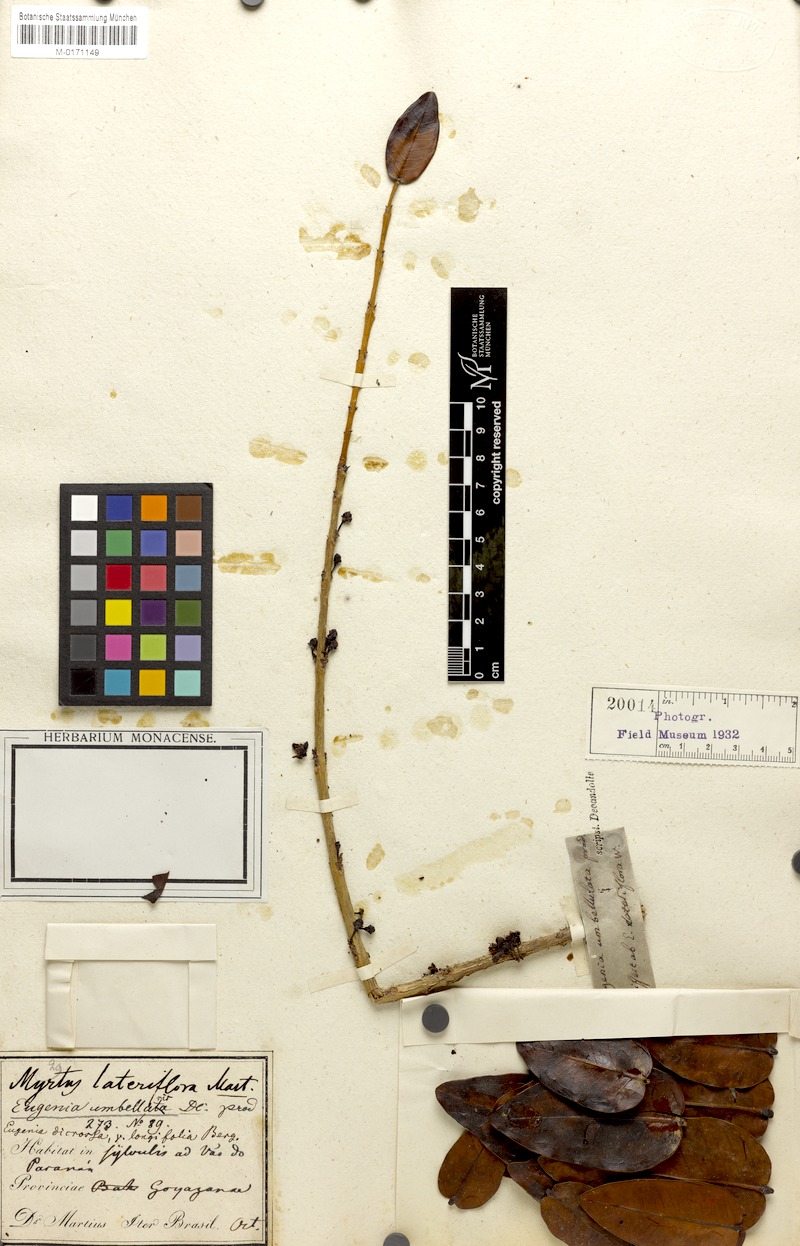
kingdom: Plantae
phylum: Tracheophyta
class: Magnoliopsida
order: Myrtales
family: Myrtaceae
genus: Eugenia
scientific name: Eugenia bimarginata
